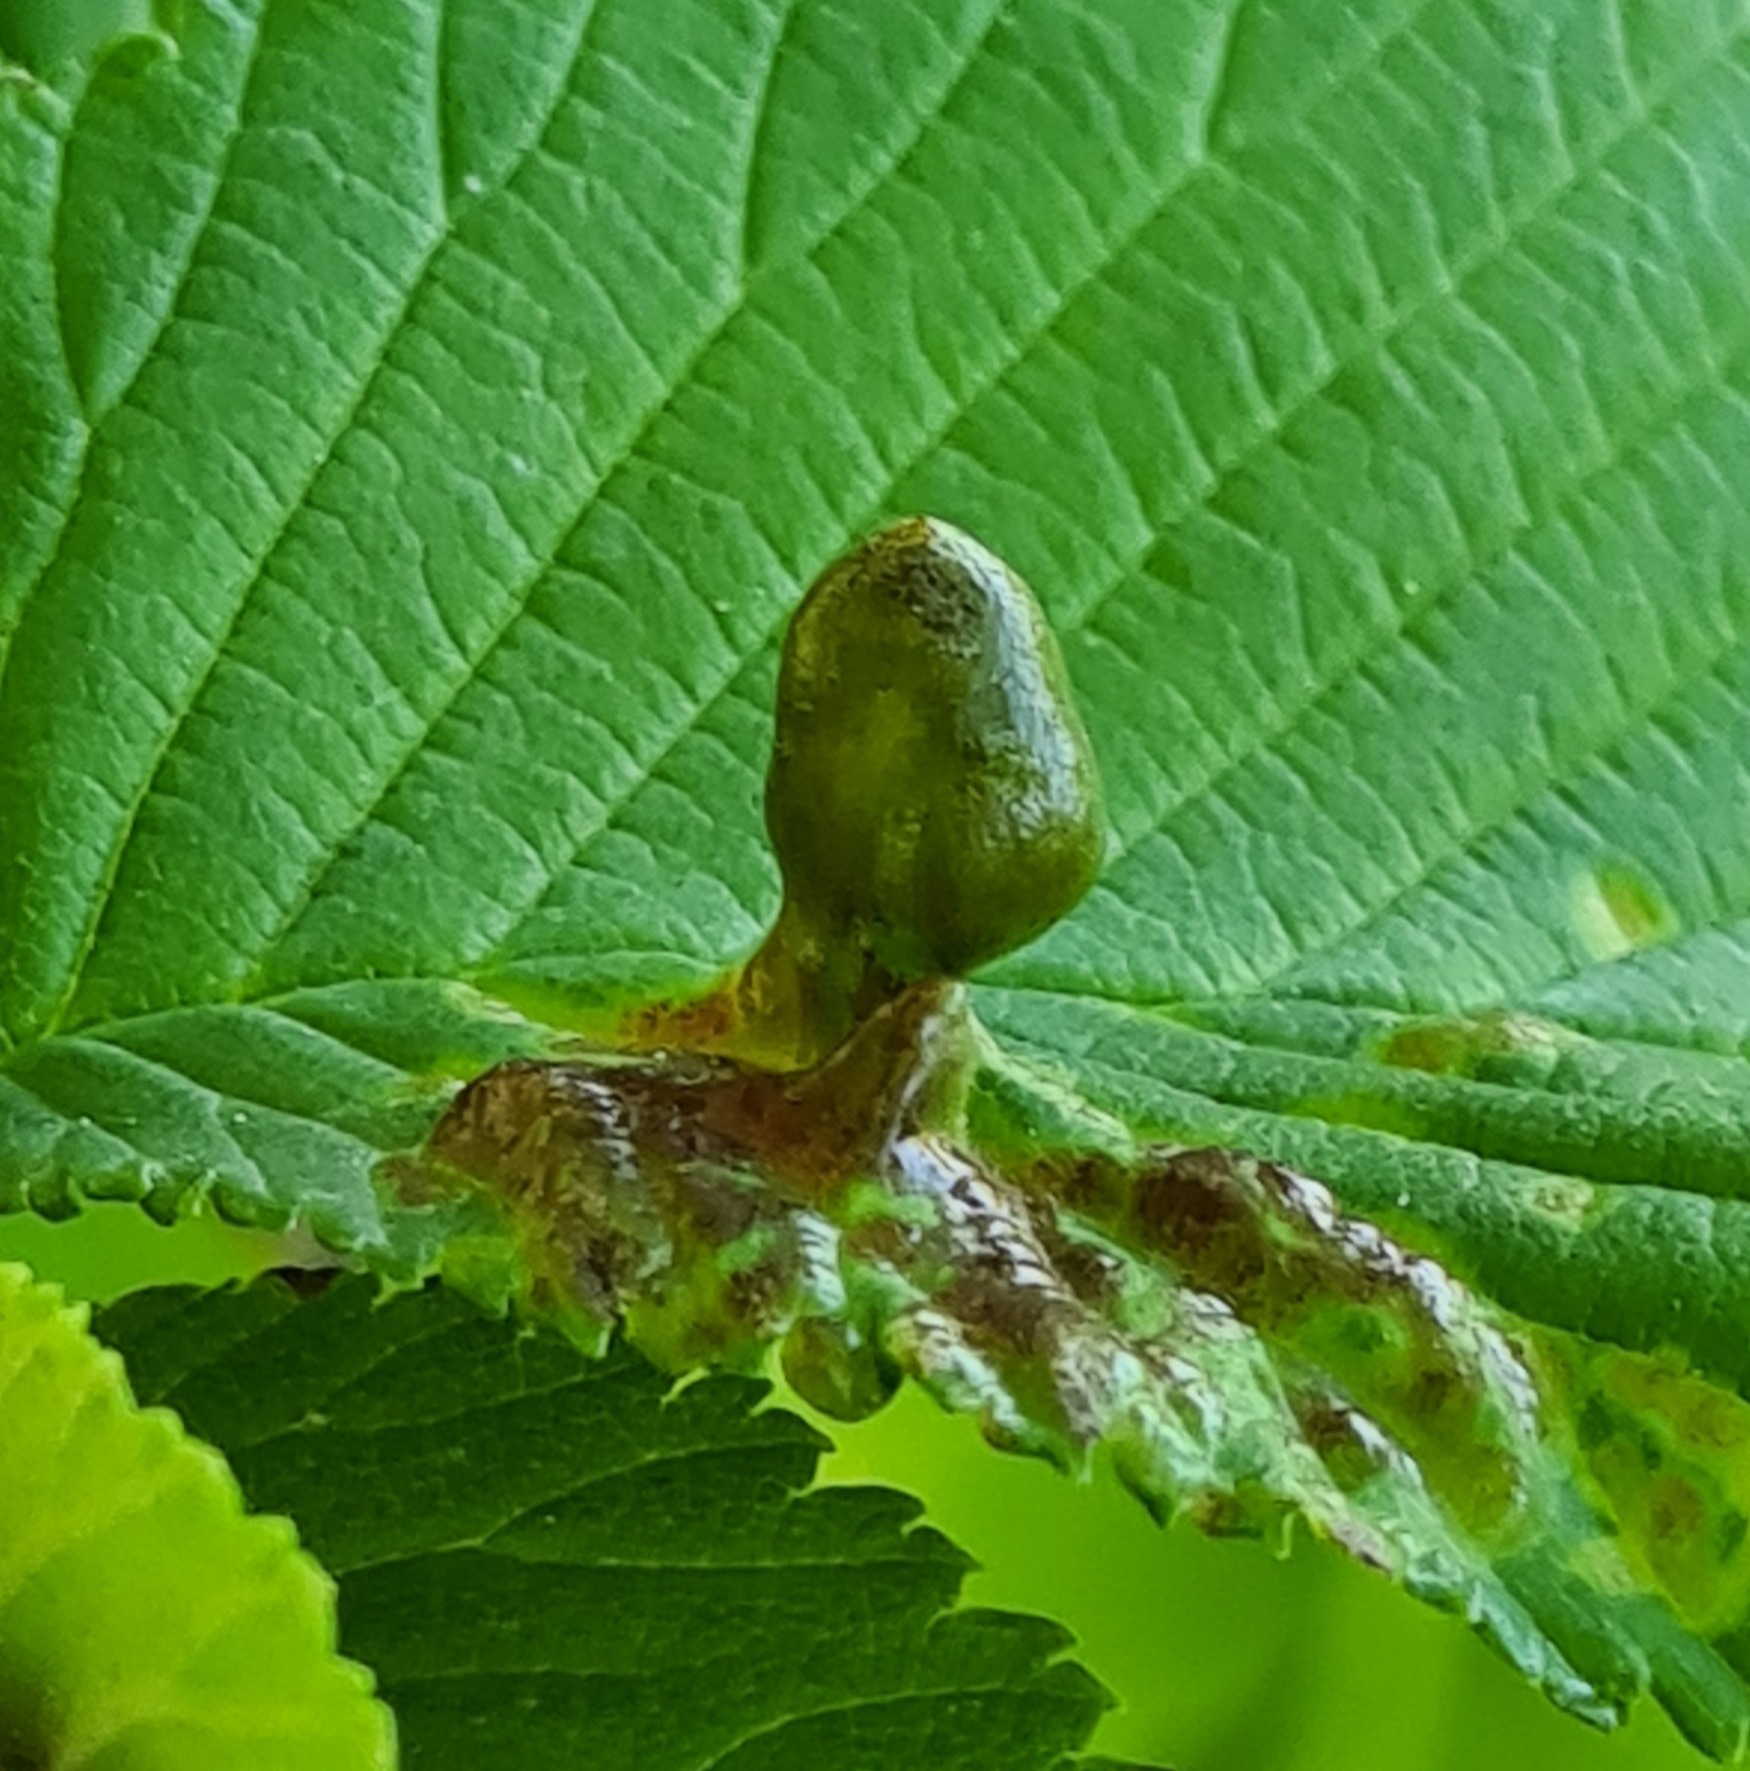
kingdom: Animalia
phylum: Arthropoda
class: Insecta
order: Hemiptera
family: Aphididae
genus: Tetraneura
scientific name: Tetraneura ulmi
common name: Elmegallelus
